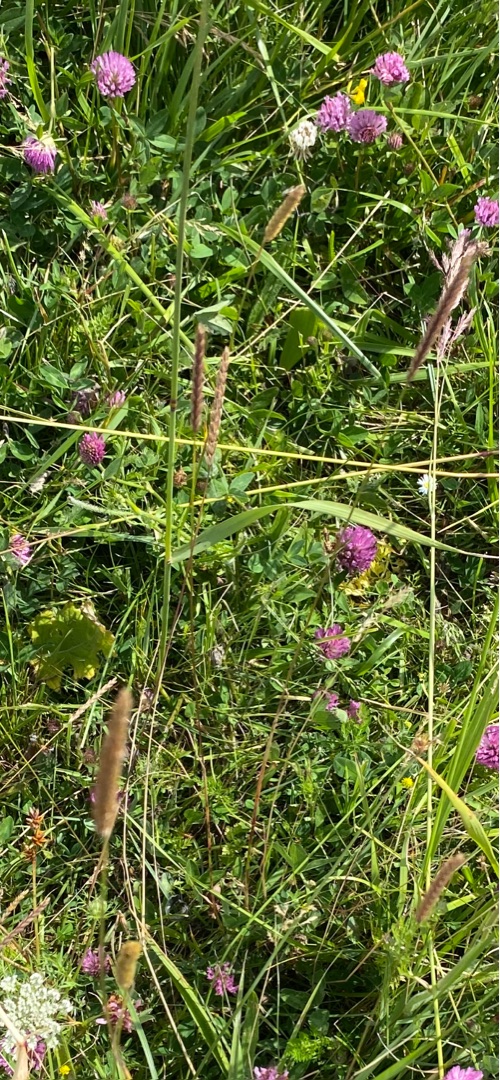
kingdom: Plantae
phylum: Tracheophyta
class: Liliopsida
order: Poales
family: Poaceae
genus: Cynosurus
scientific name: Cynosurus cristatus
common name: Kamgræs
